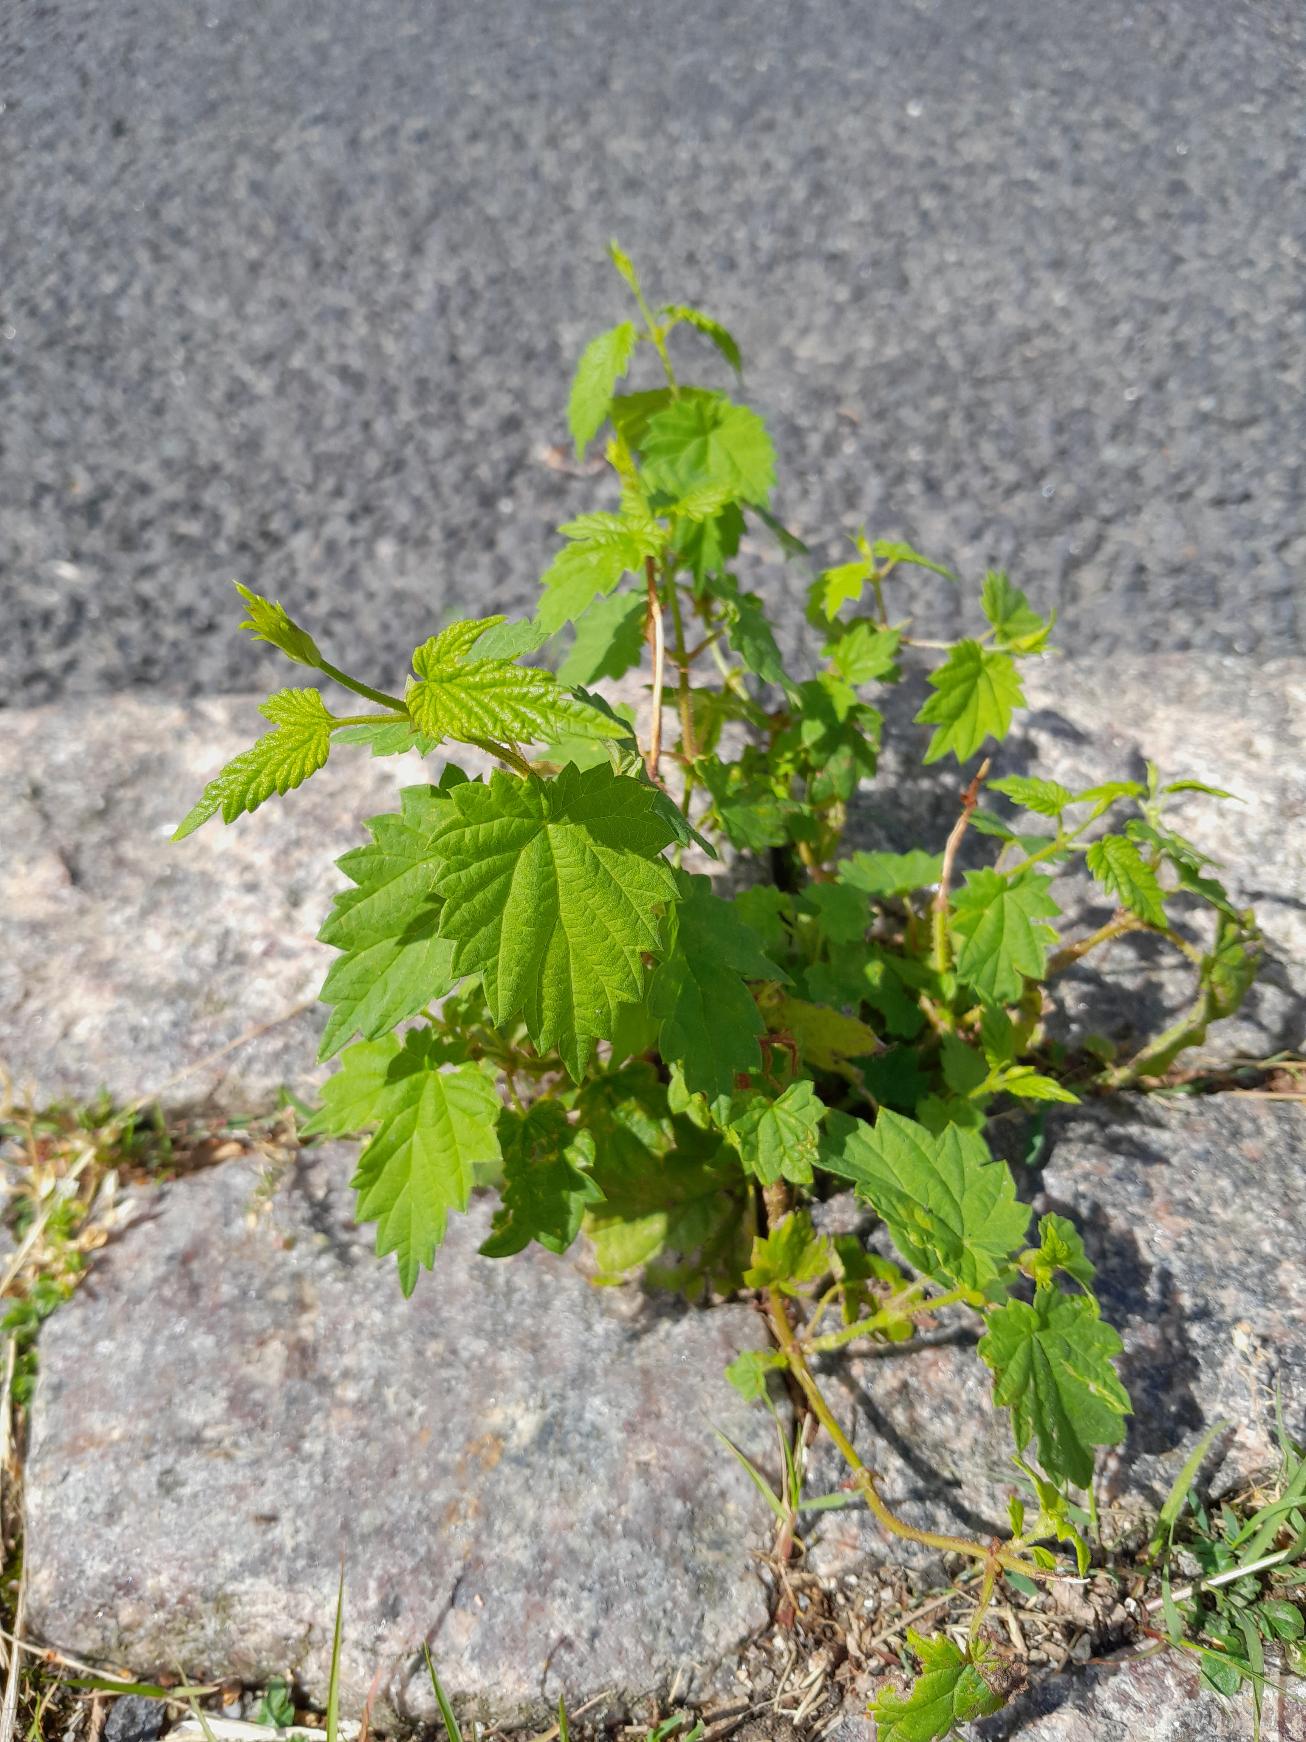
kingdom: Plantae
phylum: Tracheophyta
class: Magnoliopsida
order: Rosales
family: Cannabaceae
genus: Humulus
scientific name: Humulus lupulus
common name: Humle
